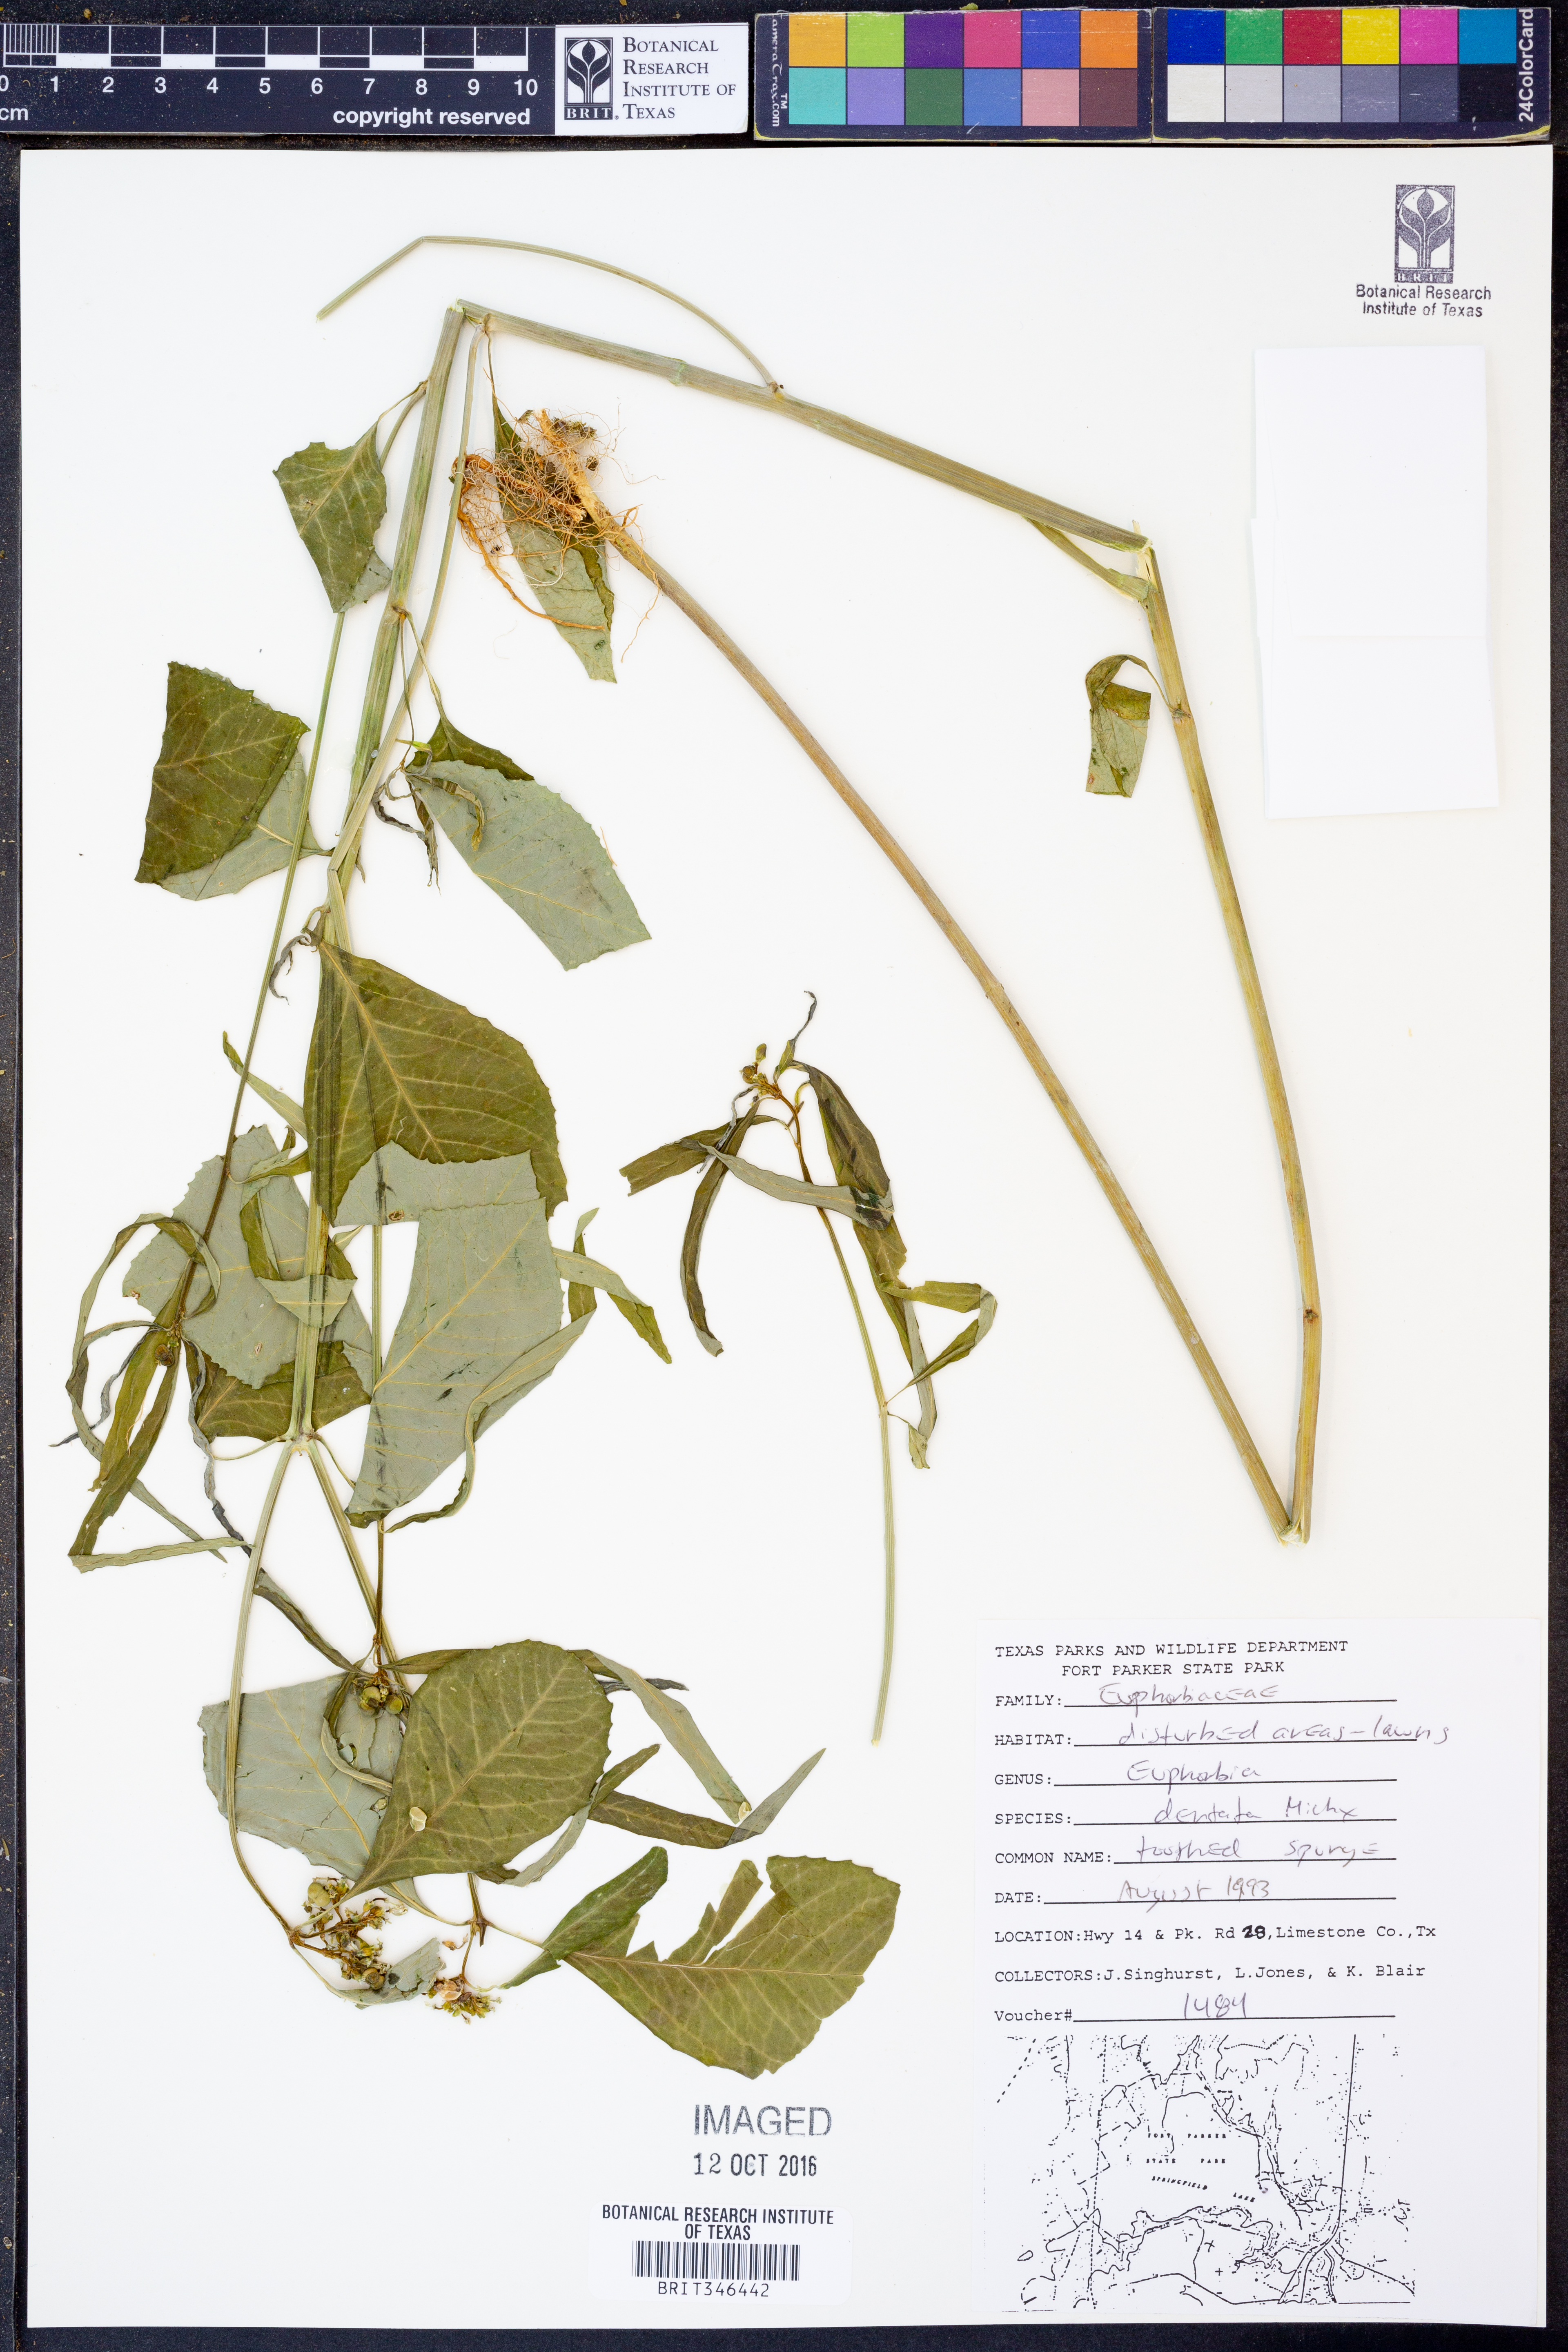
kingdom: Plantae
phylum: Tracheophyta
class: Magnoliopsida
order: Malpighiales
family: Euphorbiaceae
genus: Euphorbia
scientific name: Euphorbia dentata
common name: Dentate spurge
